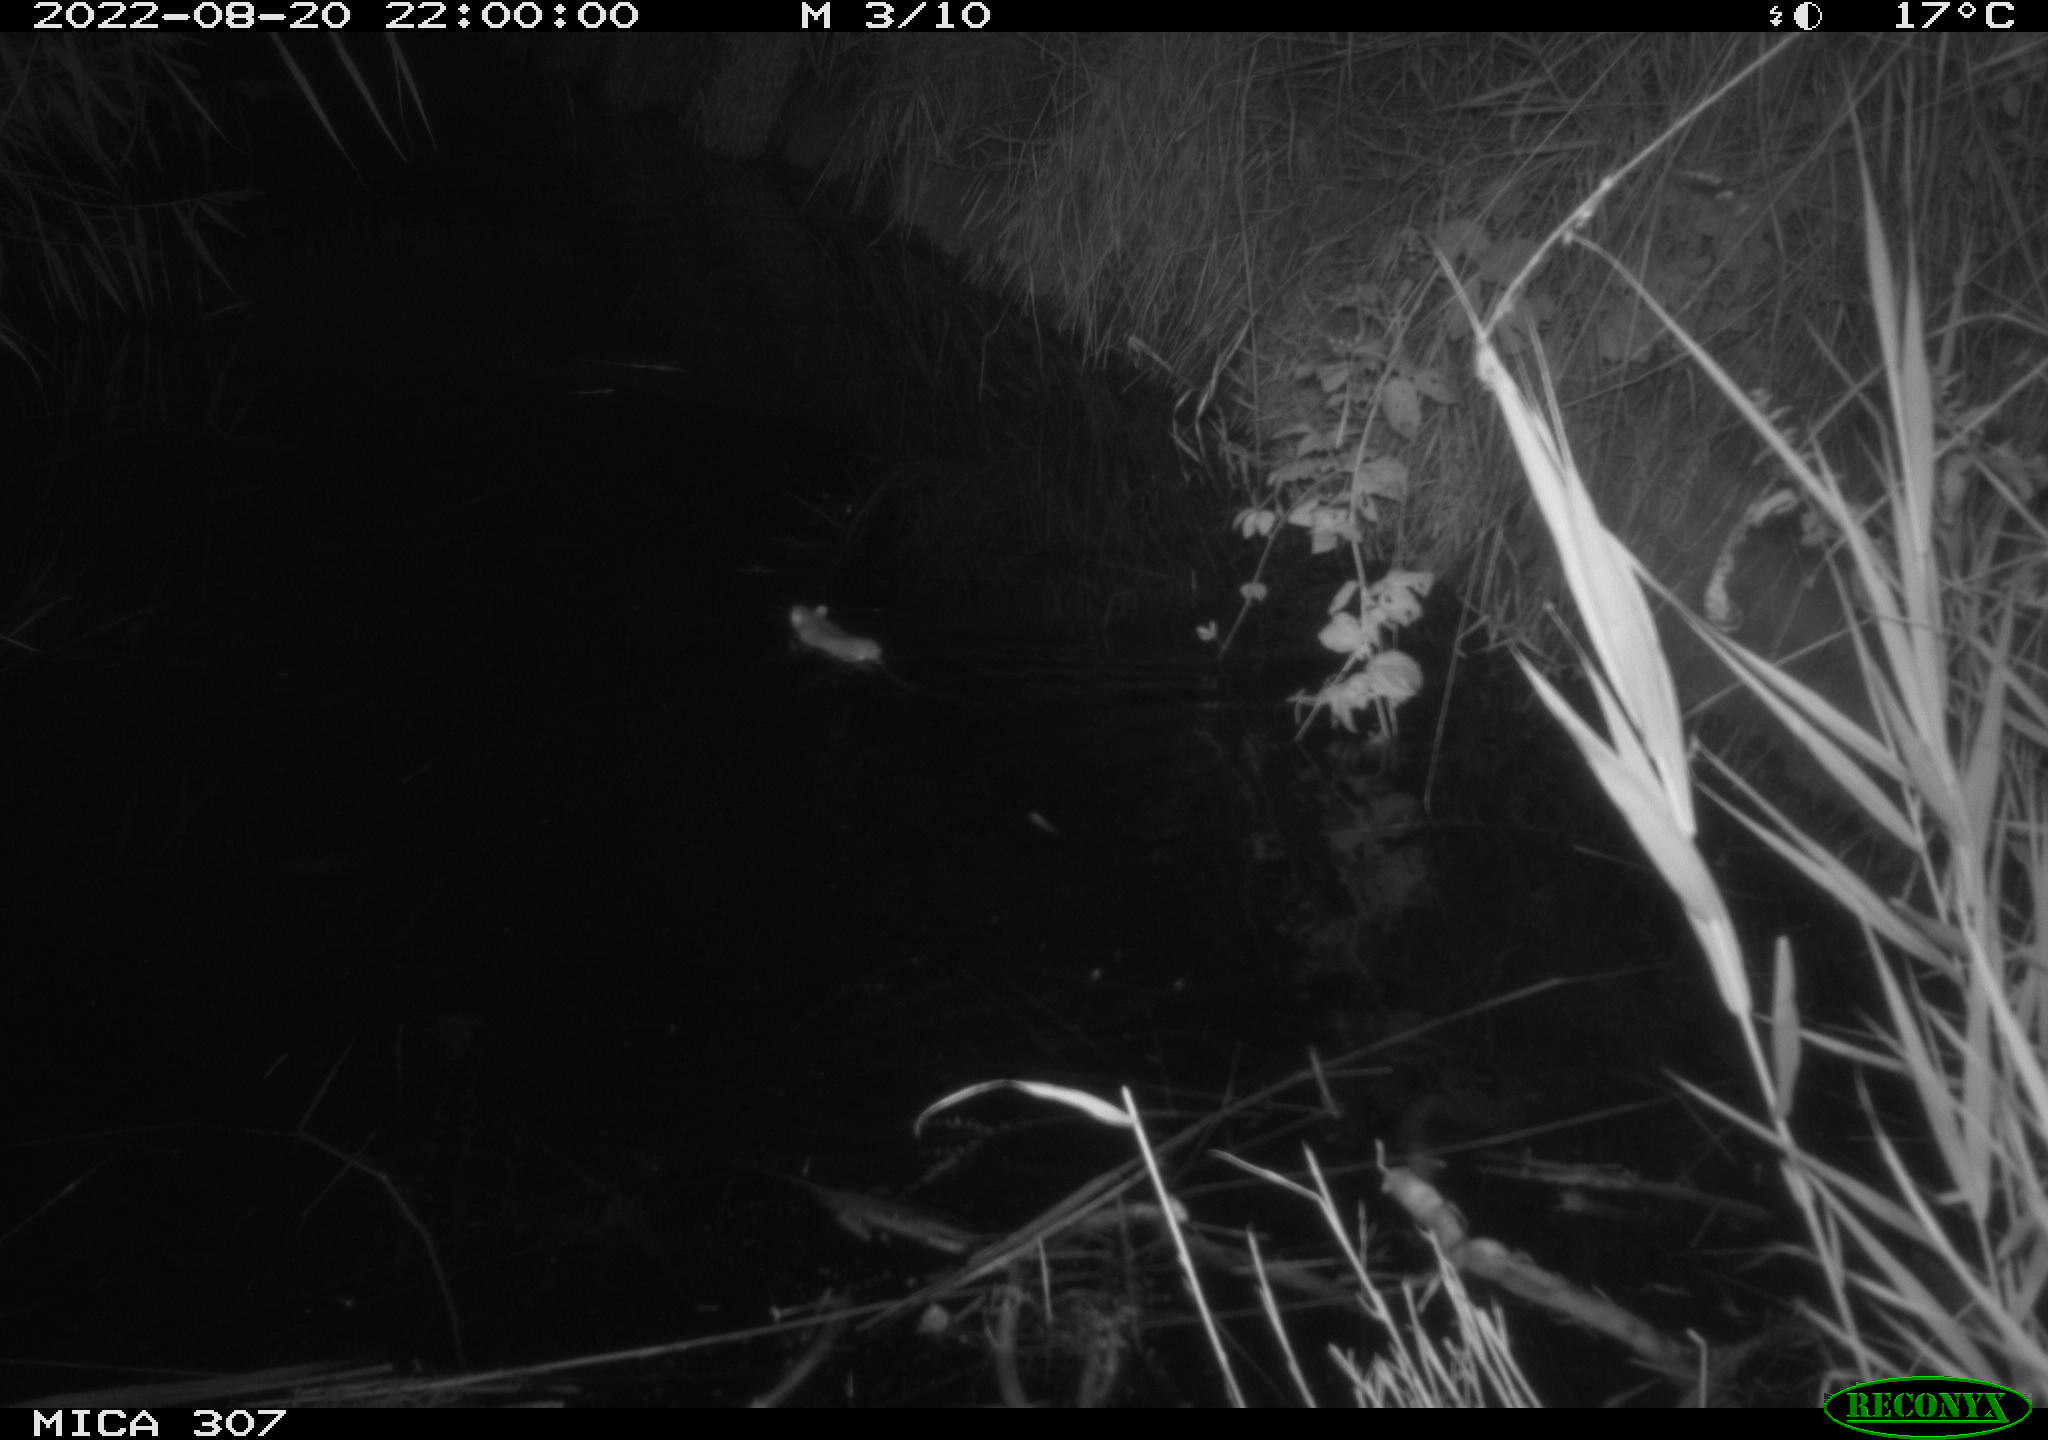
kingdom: Animalia
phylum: Chordata
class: Mammalia
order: Rodentia
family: Muridae
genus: Rattus
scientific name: Rattus norvegicus
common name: Brown rat
